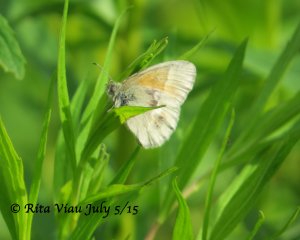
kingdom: Animalia
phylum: Arthropoda
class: Insecta
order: Lepidoptera
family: Nymphalidae
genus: Coenonympha
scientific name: Coenonympha tullia
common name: Large Heath
